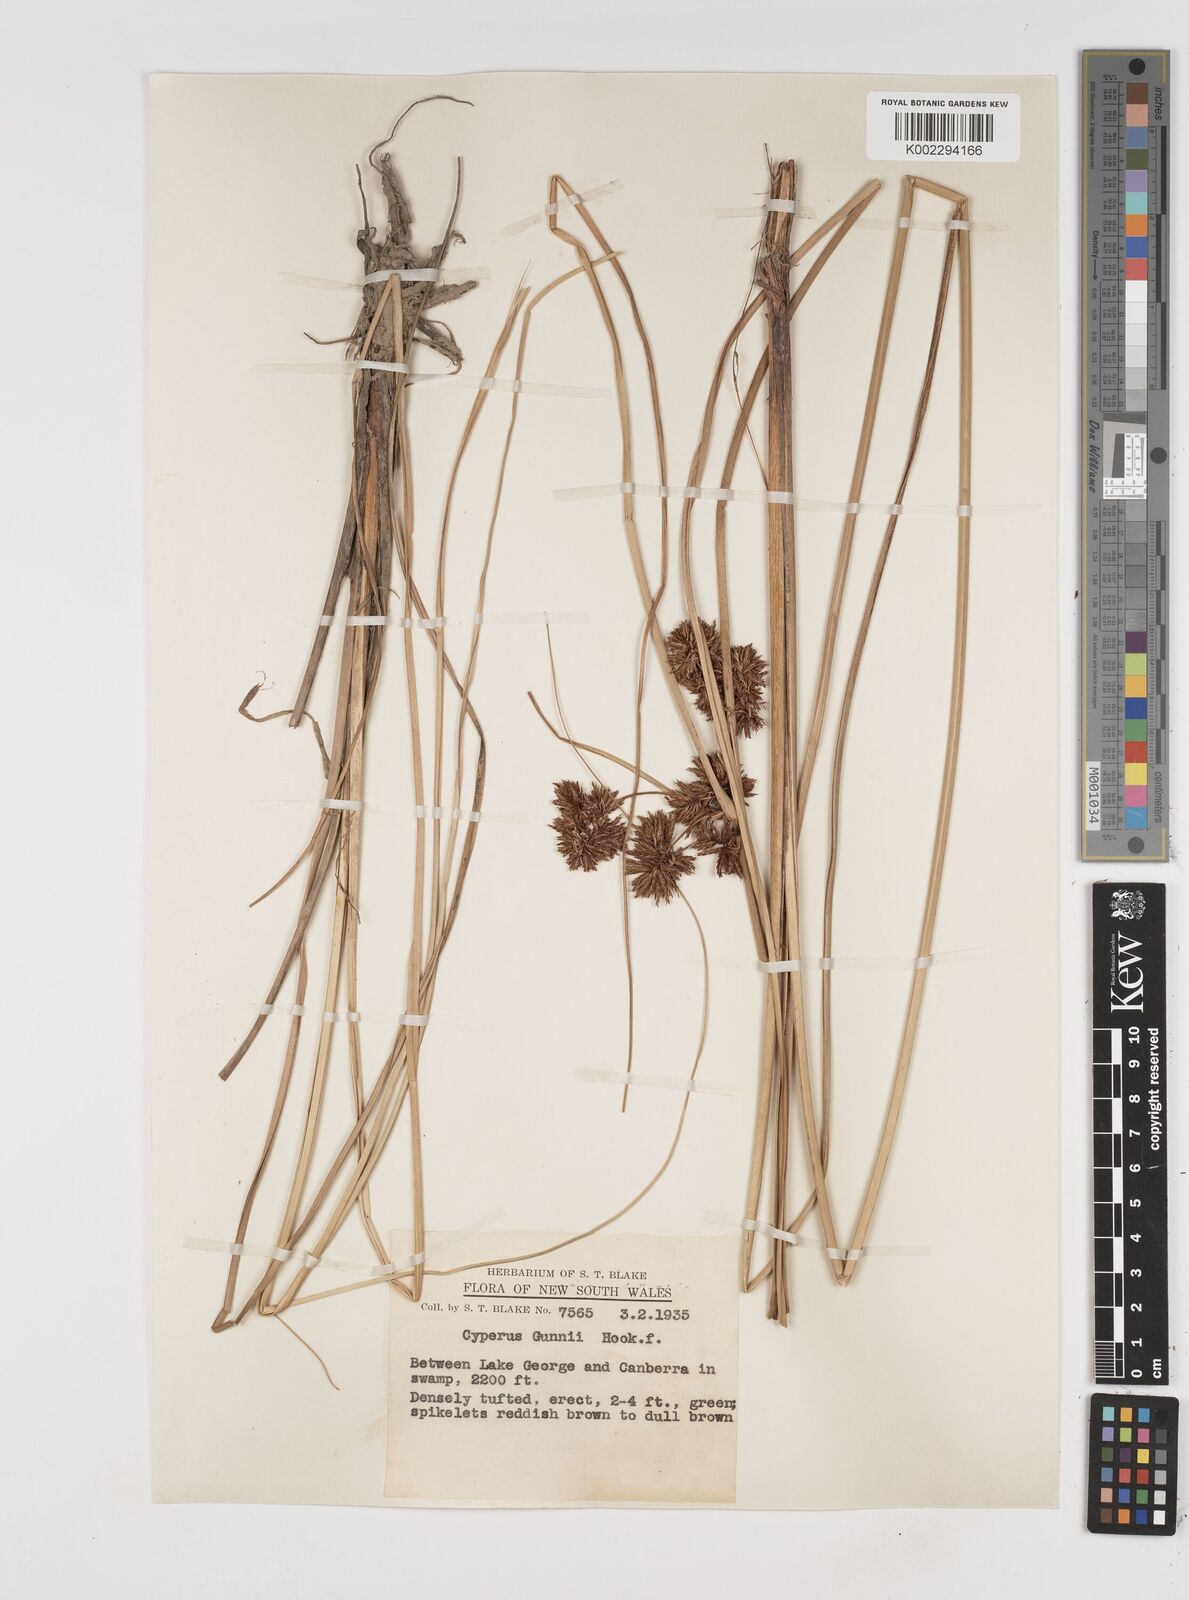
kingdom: Plantae
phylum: Tracheophyta
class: Liliopsida
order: Poales
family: Cyperaceae
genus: Cyperus
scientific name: Cyperus gunnii
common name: Flecked flat-sedge
